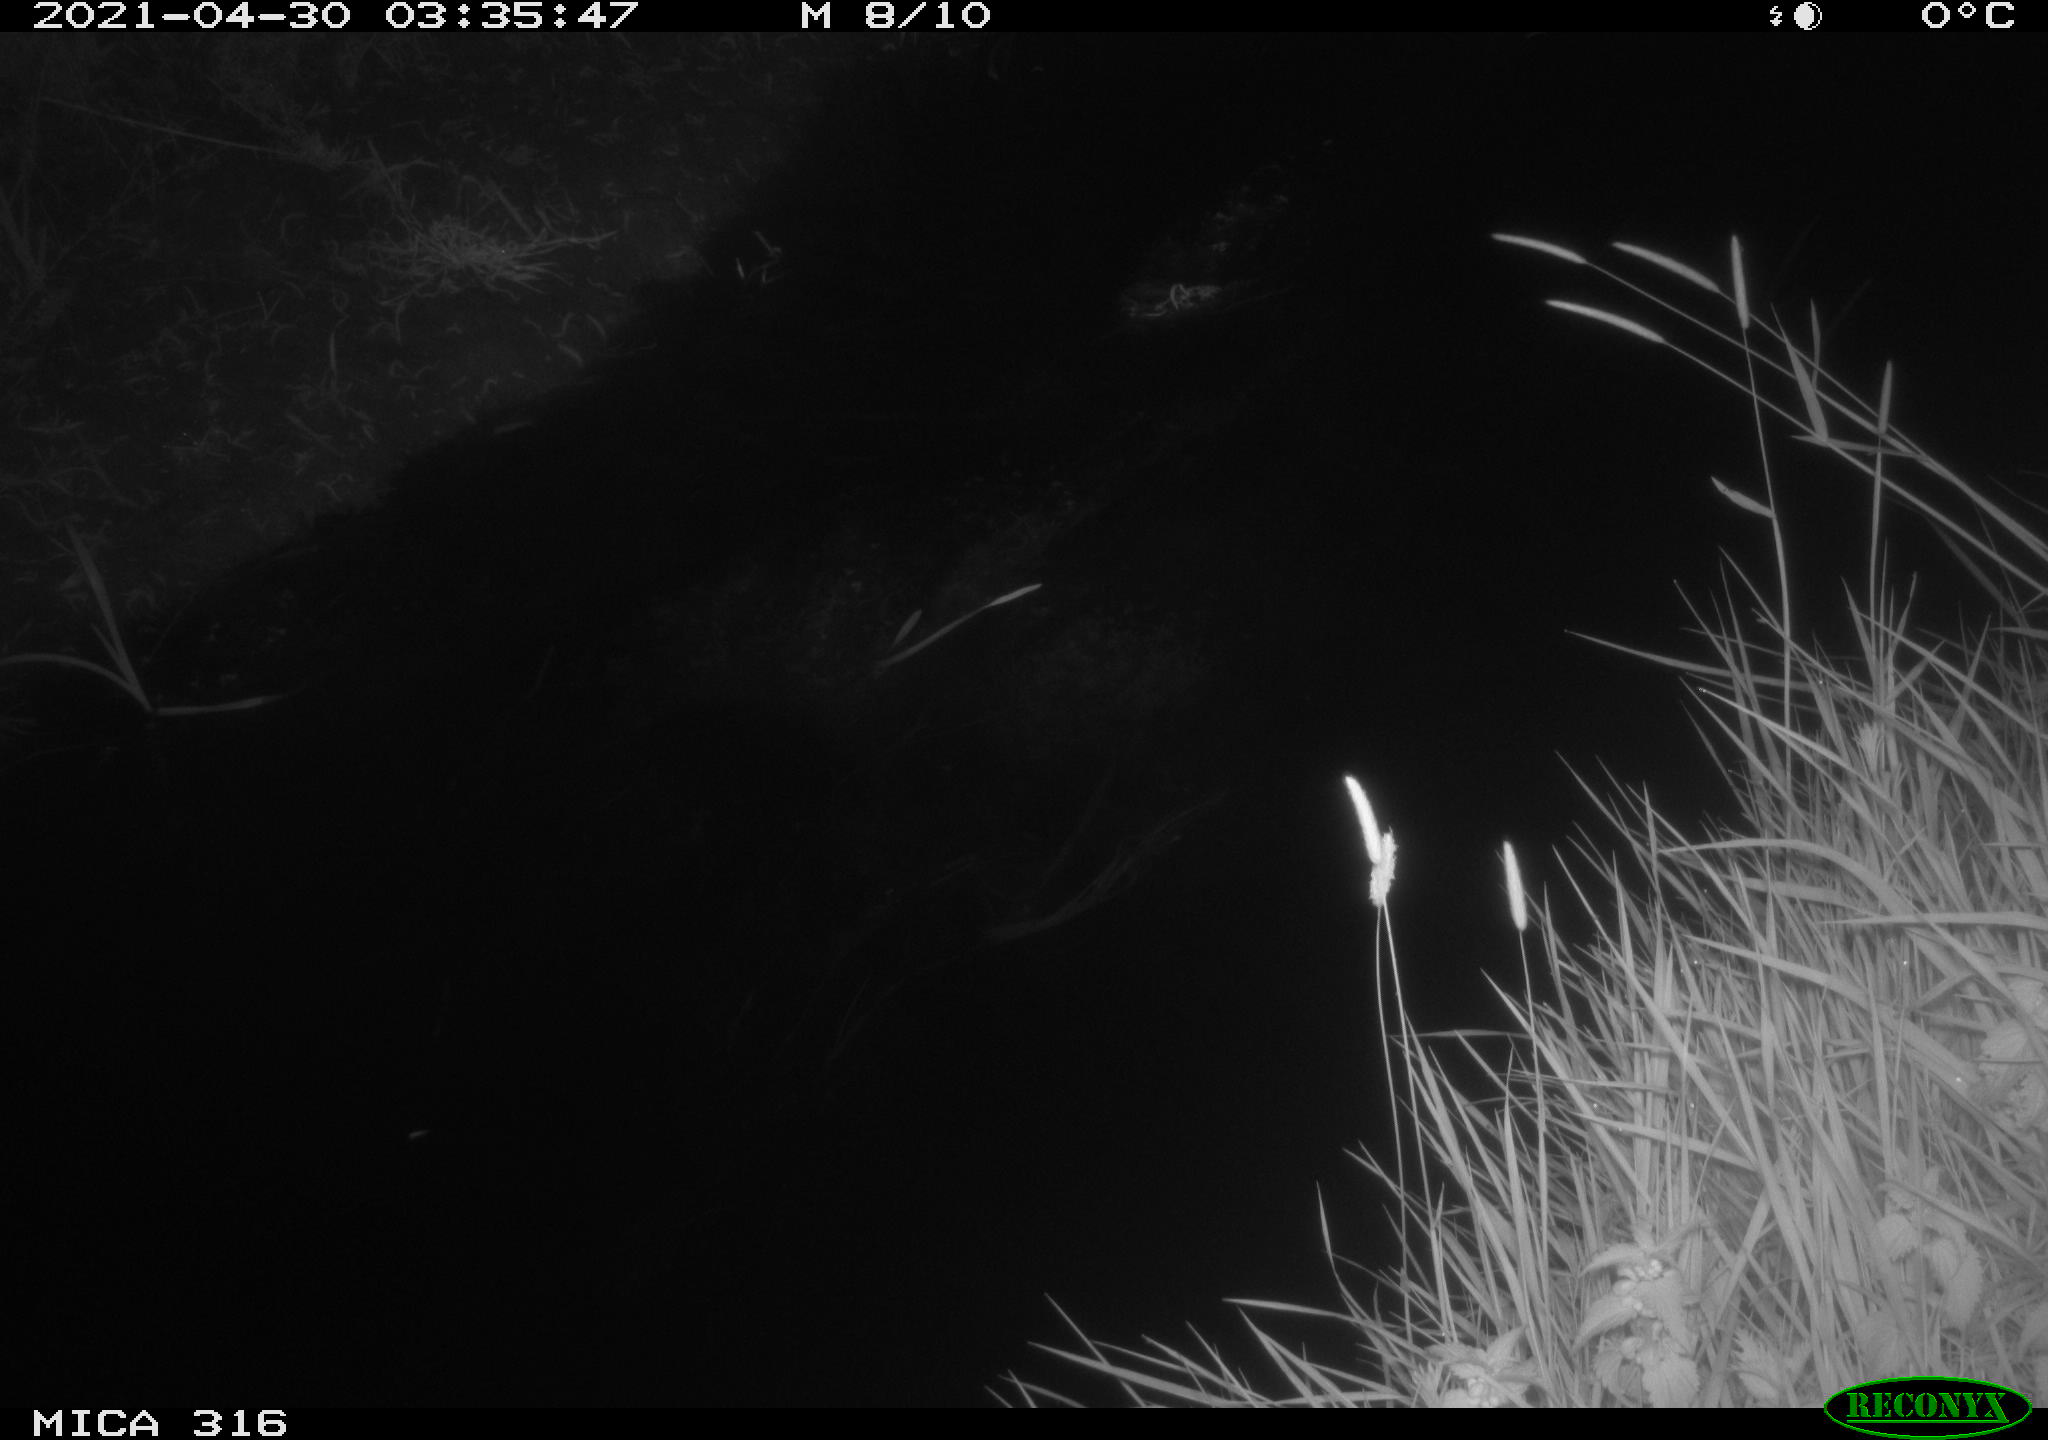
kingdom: Animalia
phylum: Chordata
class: Aves
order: Anseriformes
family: Anatidae
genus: Anas
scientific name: Anas platyrhynchos
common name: Mallard
